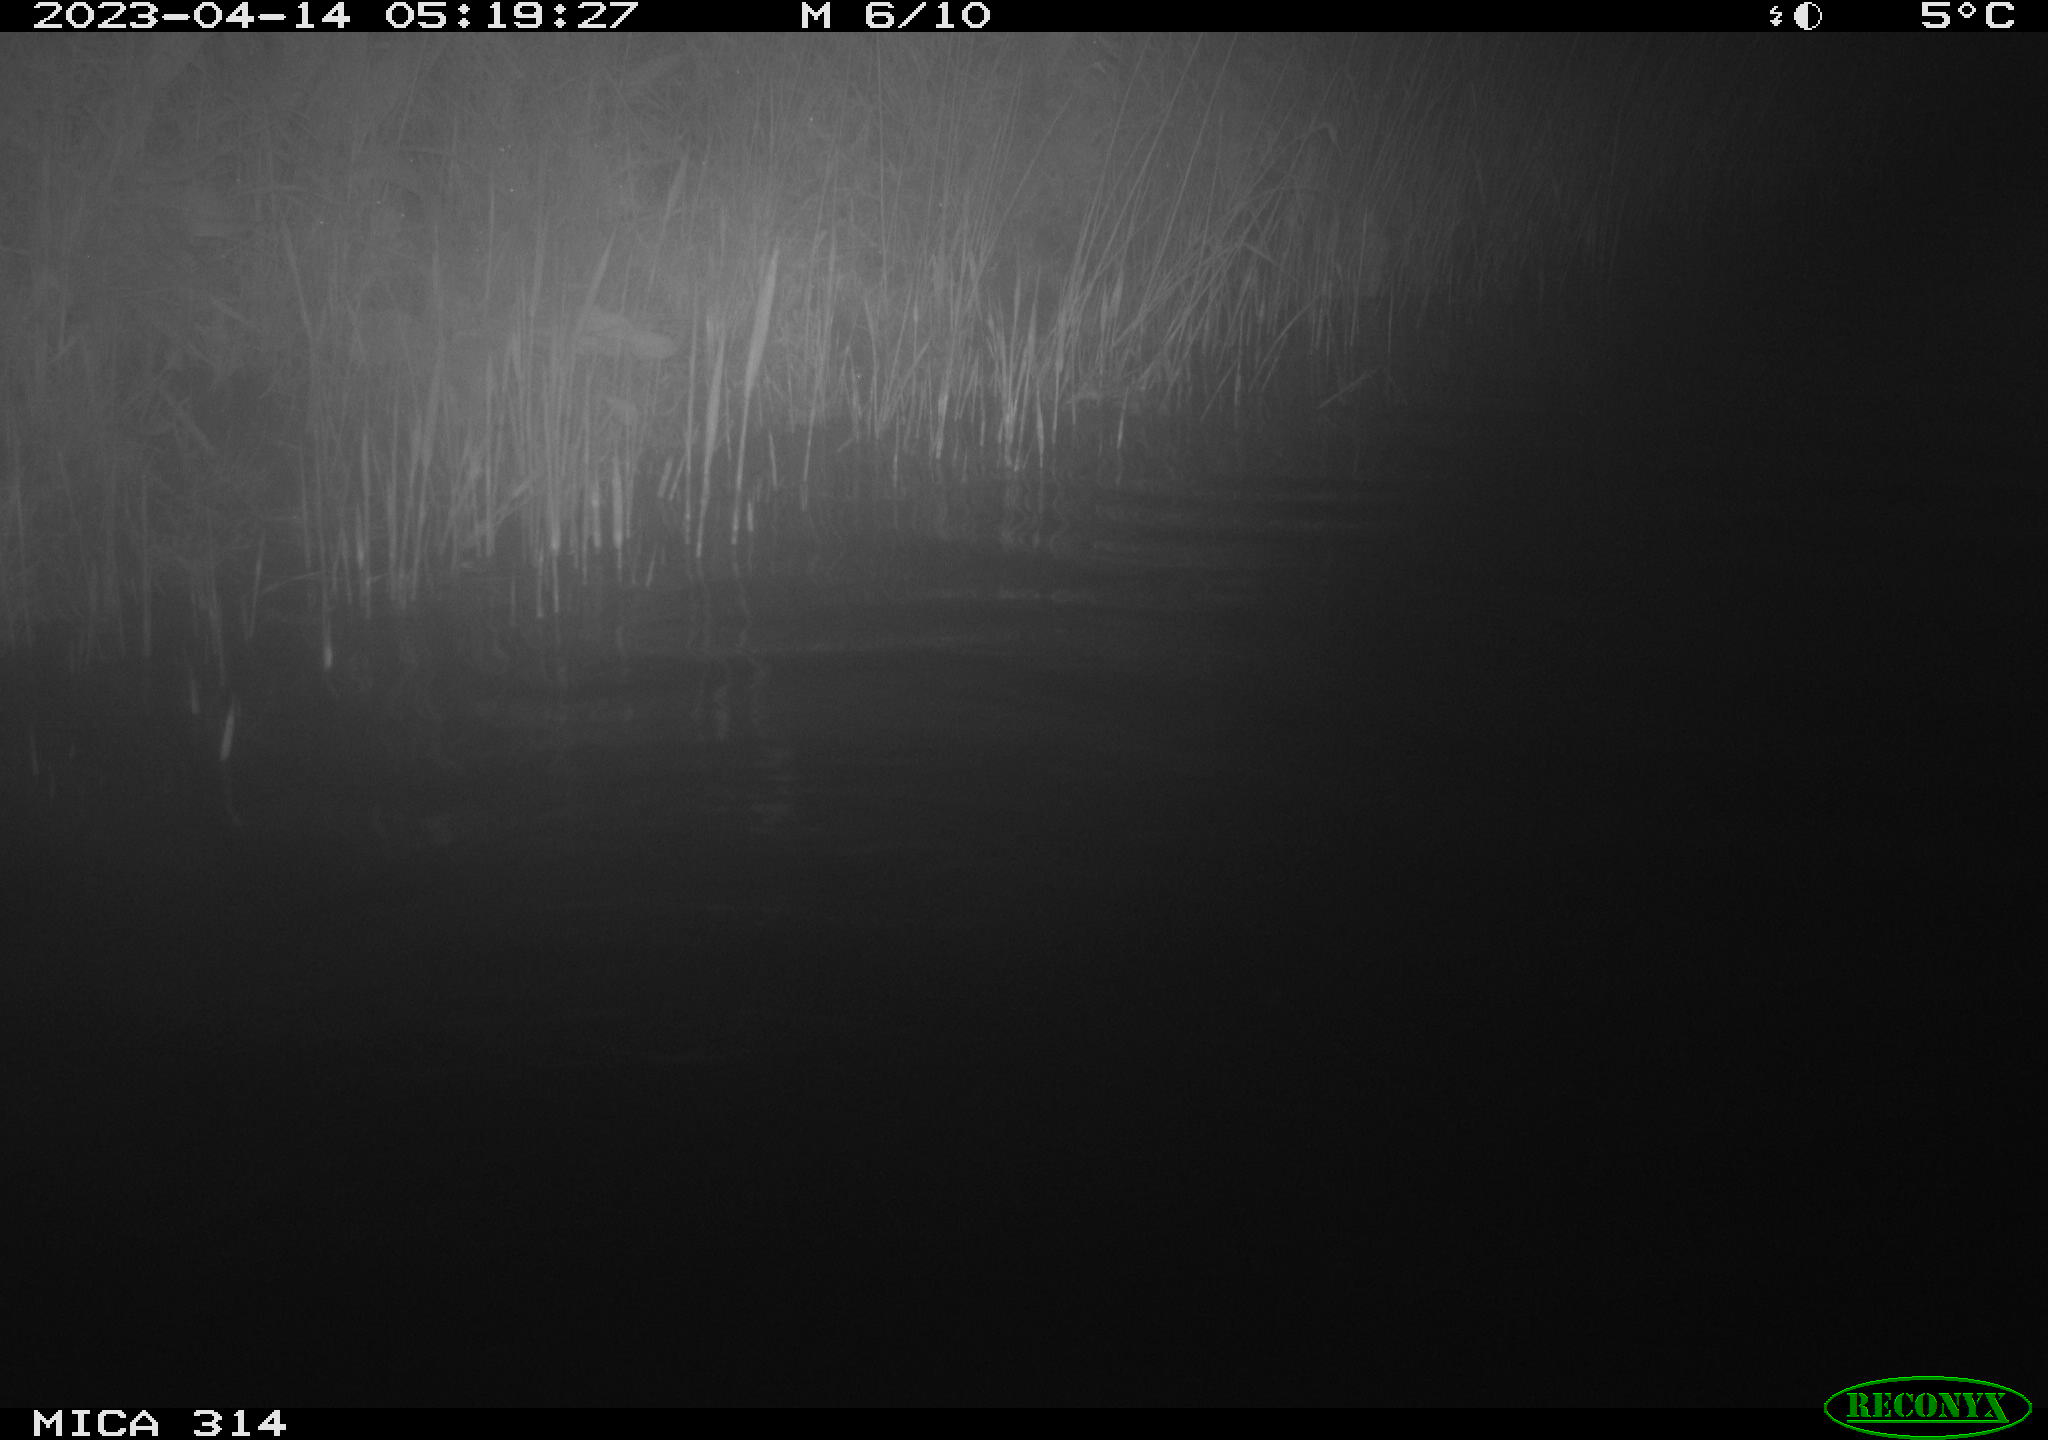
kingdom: Animalia
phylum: Chordata
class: Aves
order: Anseriformes
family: Anatidae
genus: Anas
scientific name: Anas
